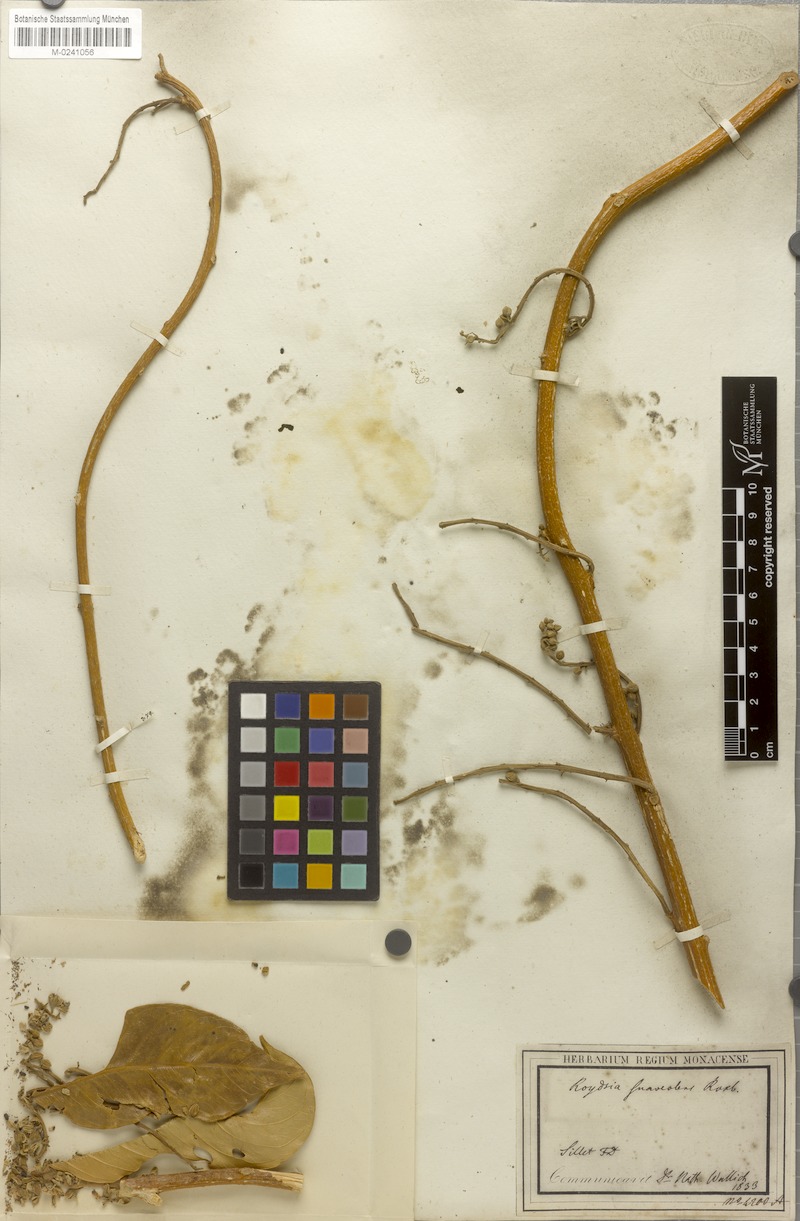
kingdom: Plantae
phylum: Tracheophyta
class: Magnoliopsida
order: Brassicales
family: Stixaceae
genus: Stixis
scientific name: Stixis suaveolens
